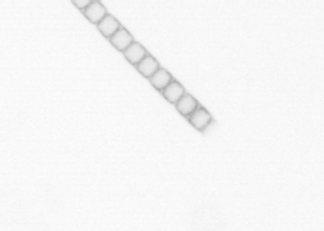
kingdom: Chromista
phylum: Ochrophyta
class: Bacillariophyceae
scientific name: Bacillariophyceae
